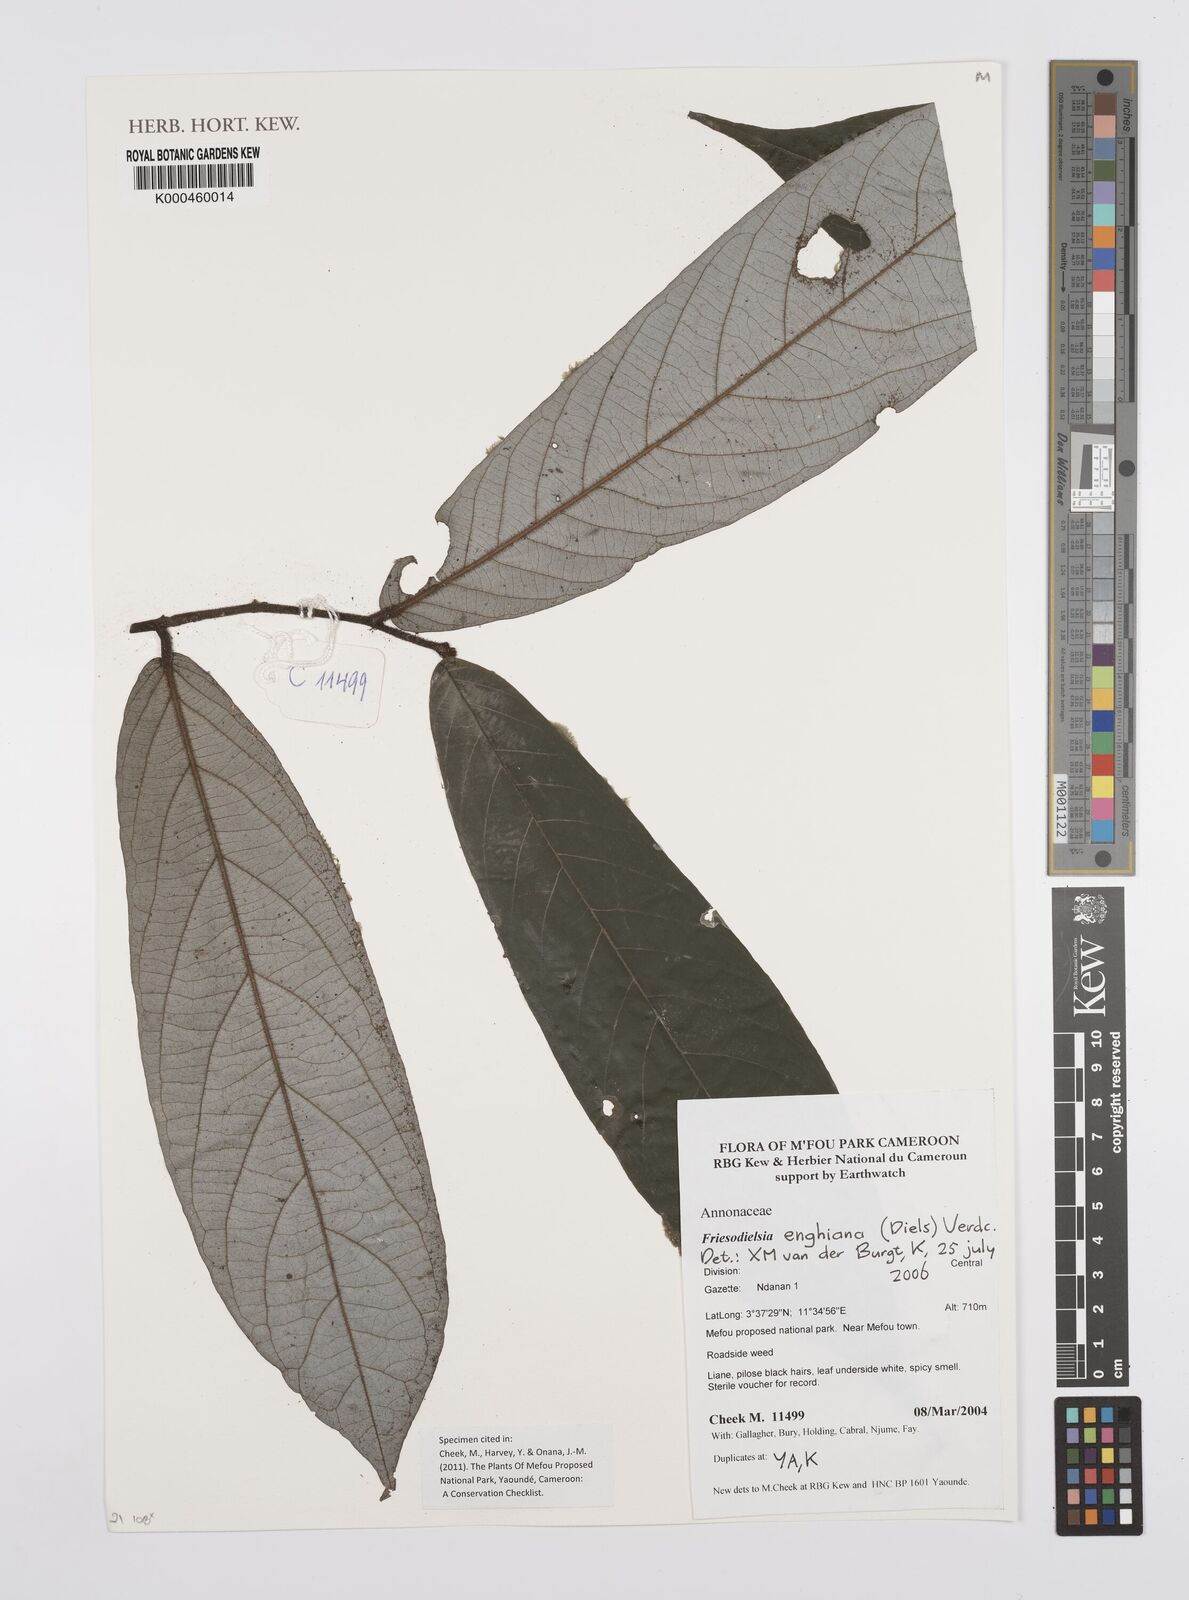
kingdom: Plantae
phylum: Tracheophyta
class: Magnoliopsida
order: Magnoliales
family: Annonaceae
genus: Friesodielsia
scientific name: Friesodielsia enghiana
